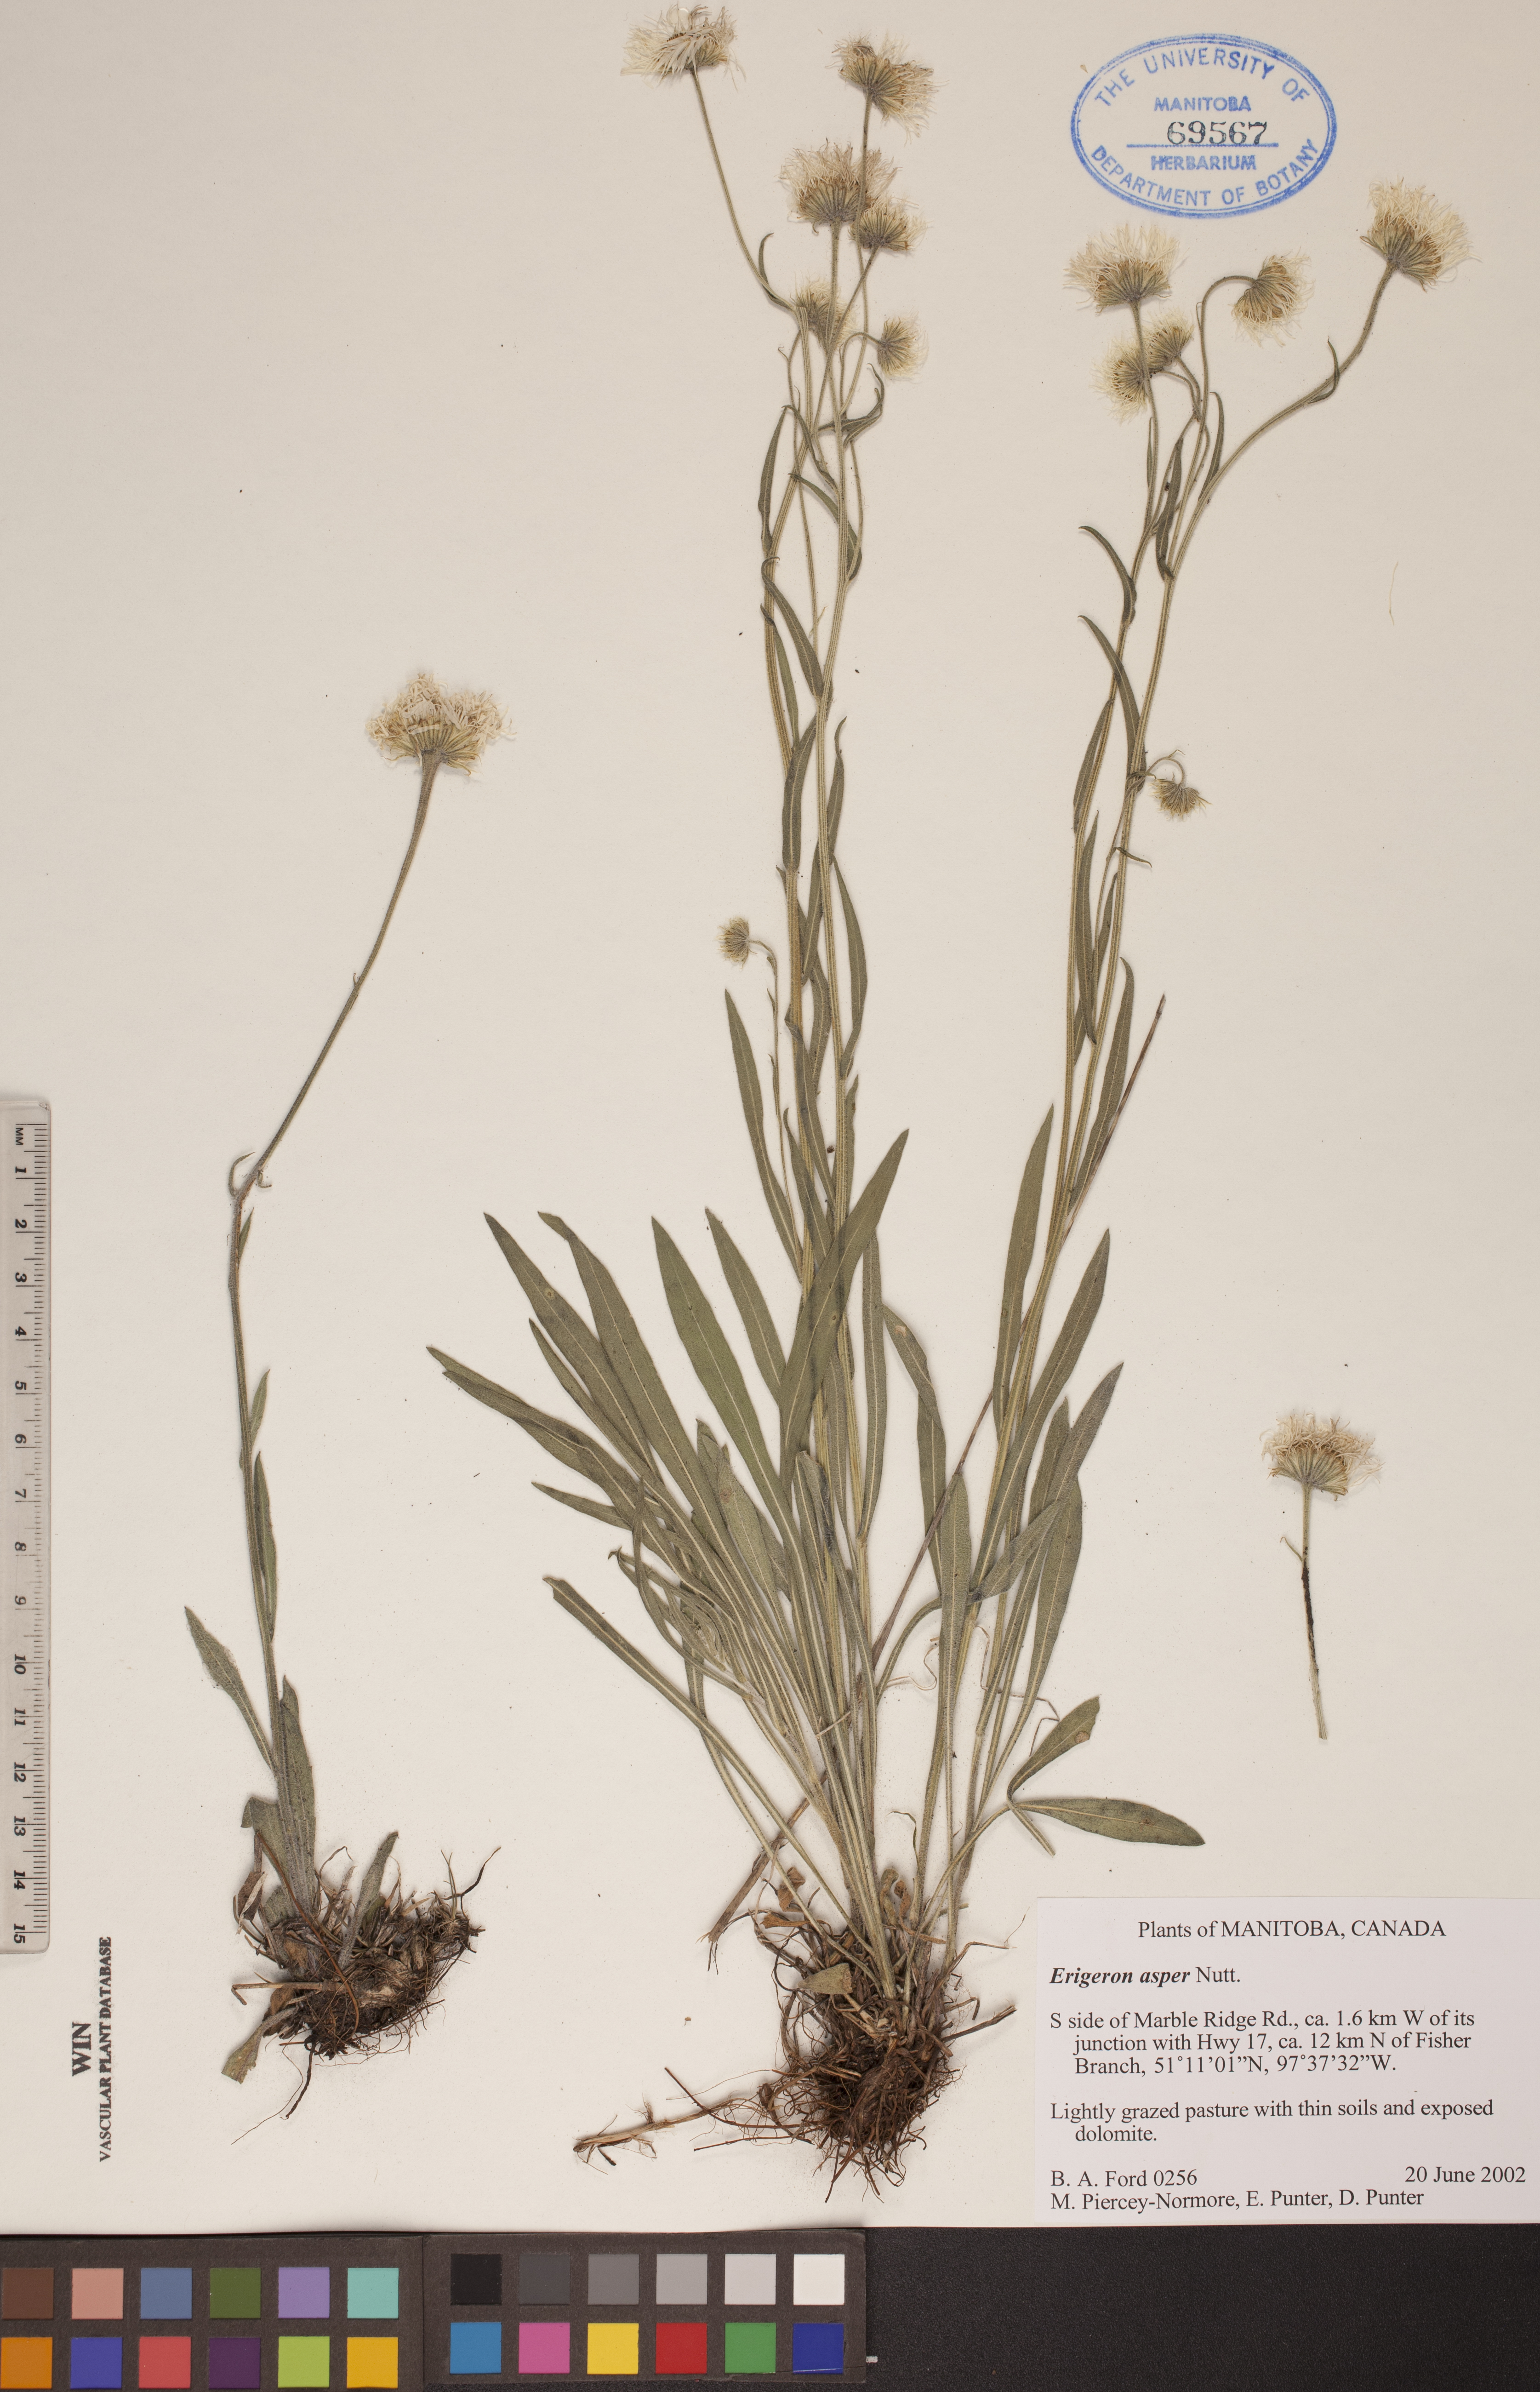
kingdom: Plantae
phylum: Tracheophyta
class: Magnoliopsida
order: Asterales
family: Asteraceae
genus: Erigeron
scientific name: Erigeron glabellus
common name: Smooth fleabane
